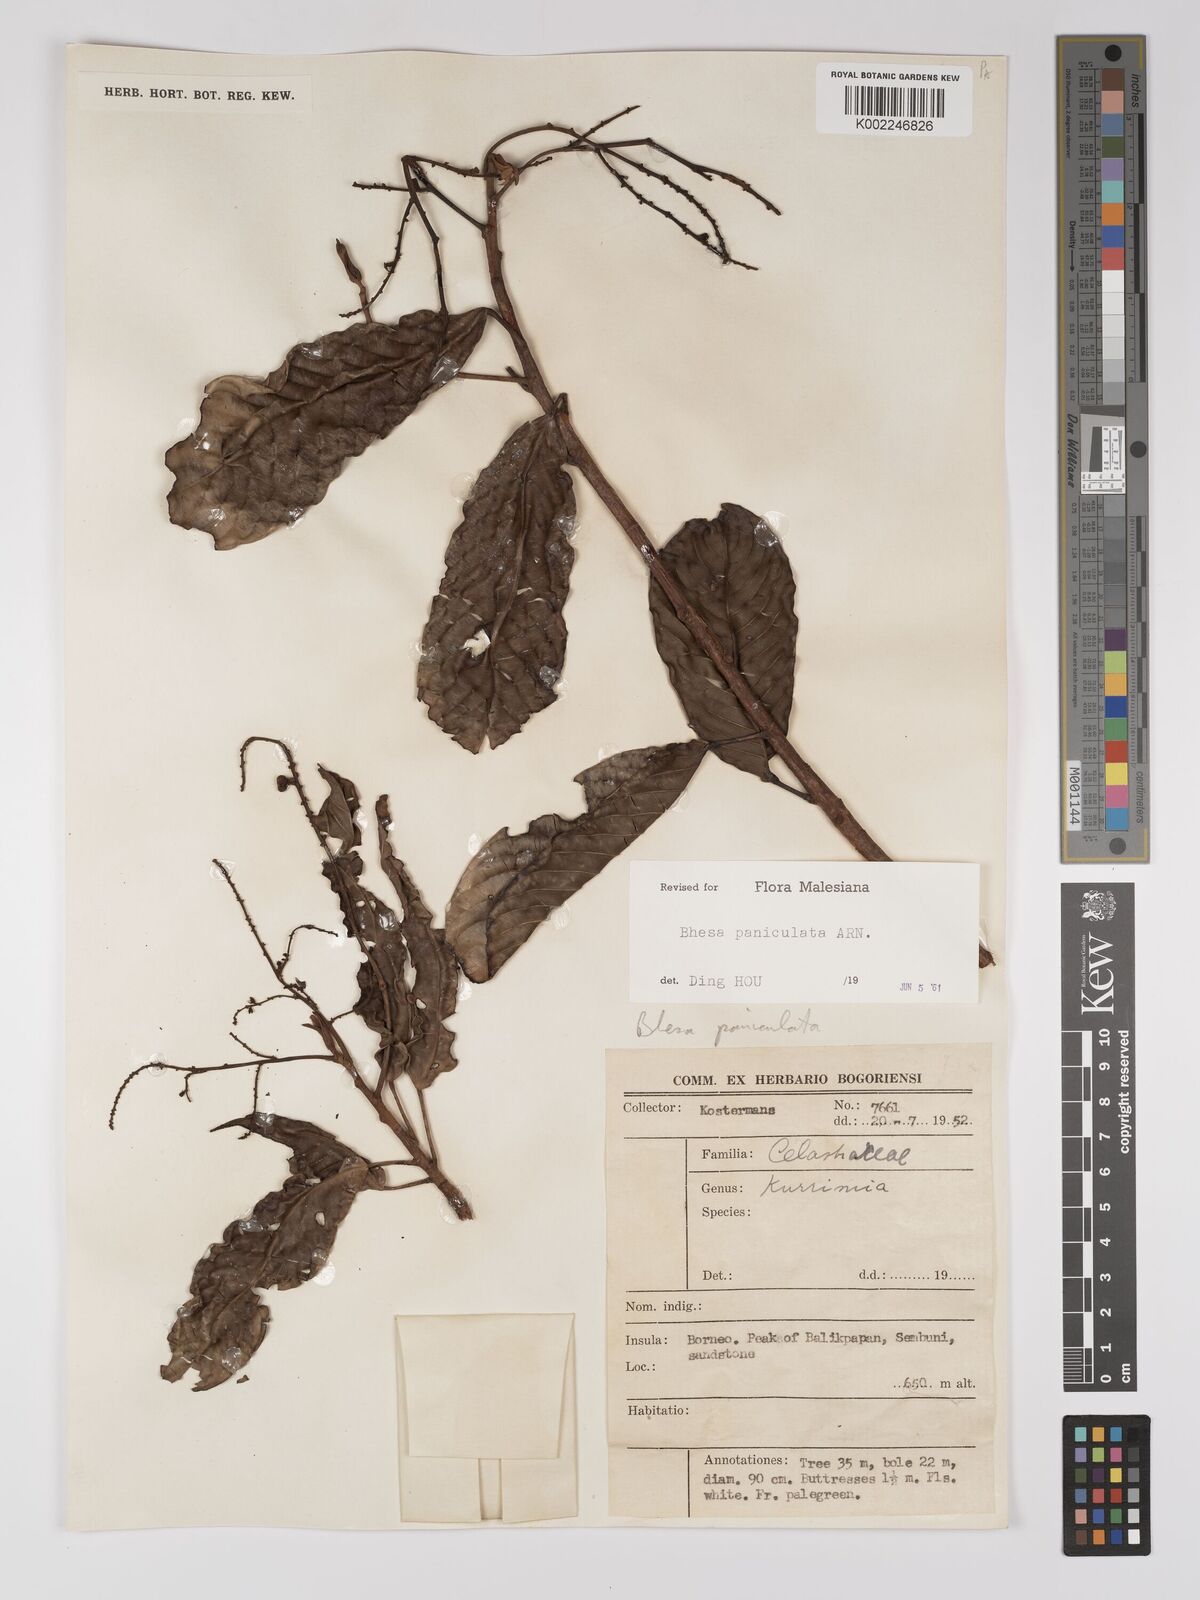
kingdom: Plantae
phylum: Tracheophyta
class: Magnoliopsida
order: Malpighiales
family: Centroplacaceae
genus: Bhesa
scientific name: Bhesa paniculata
